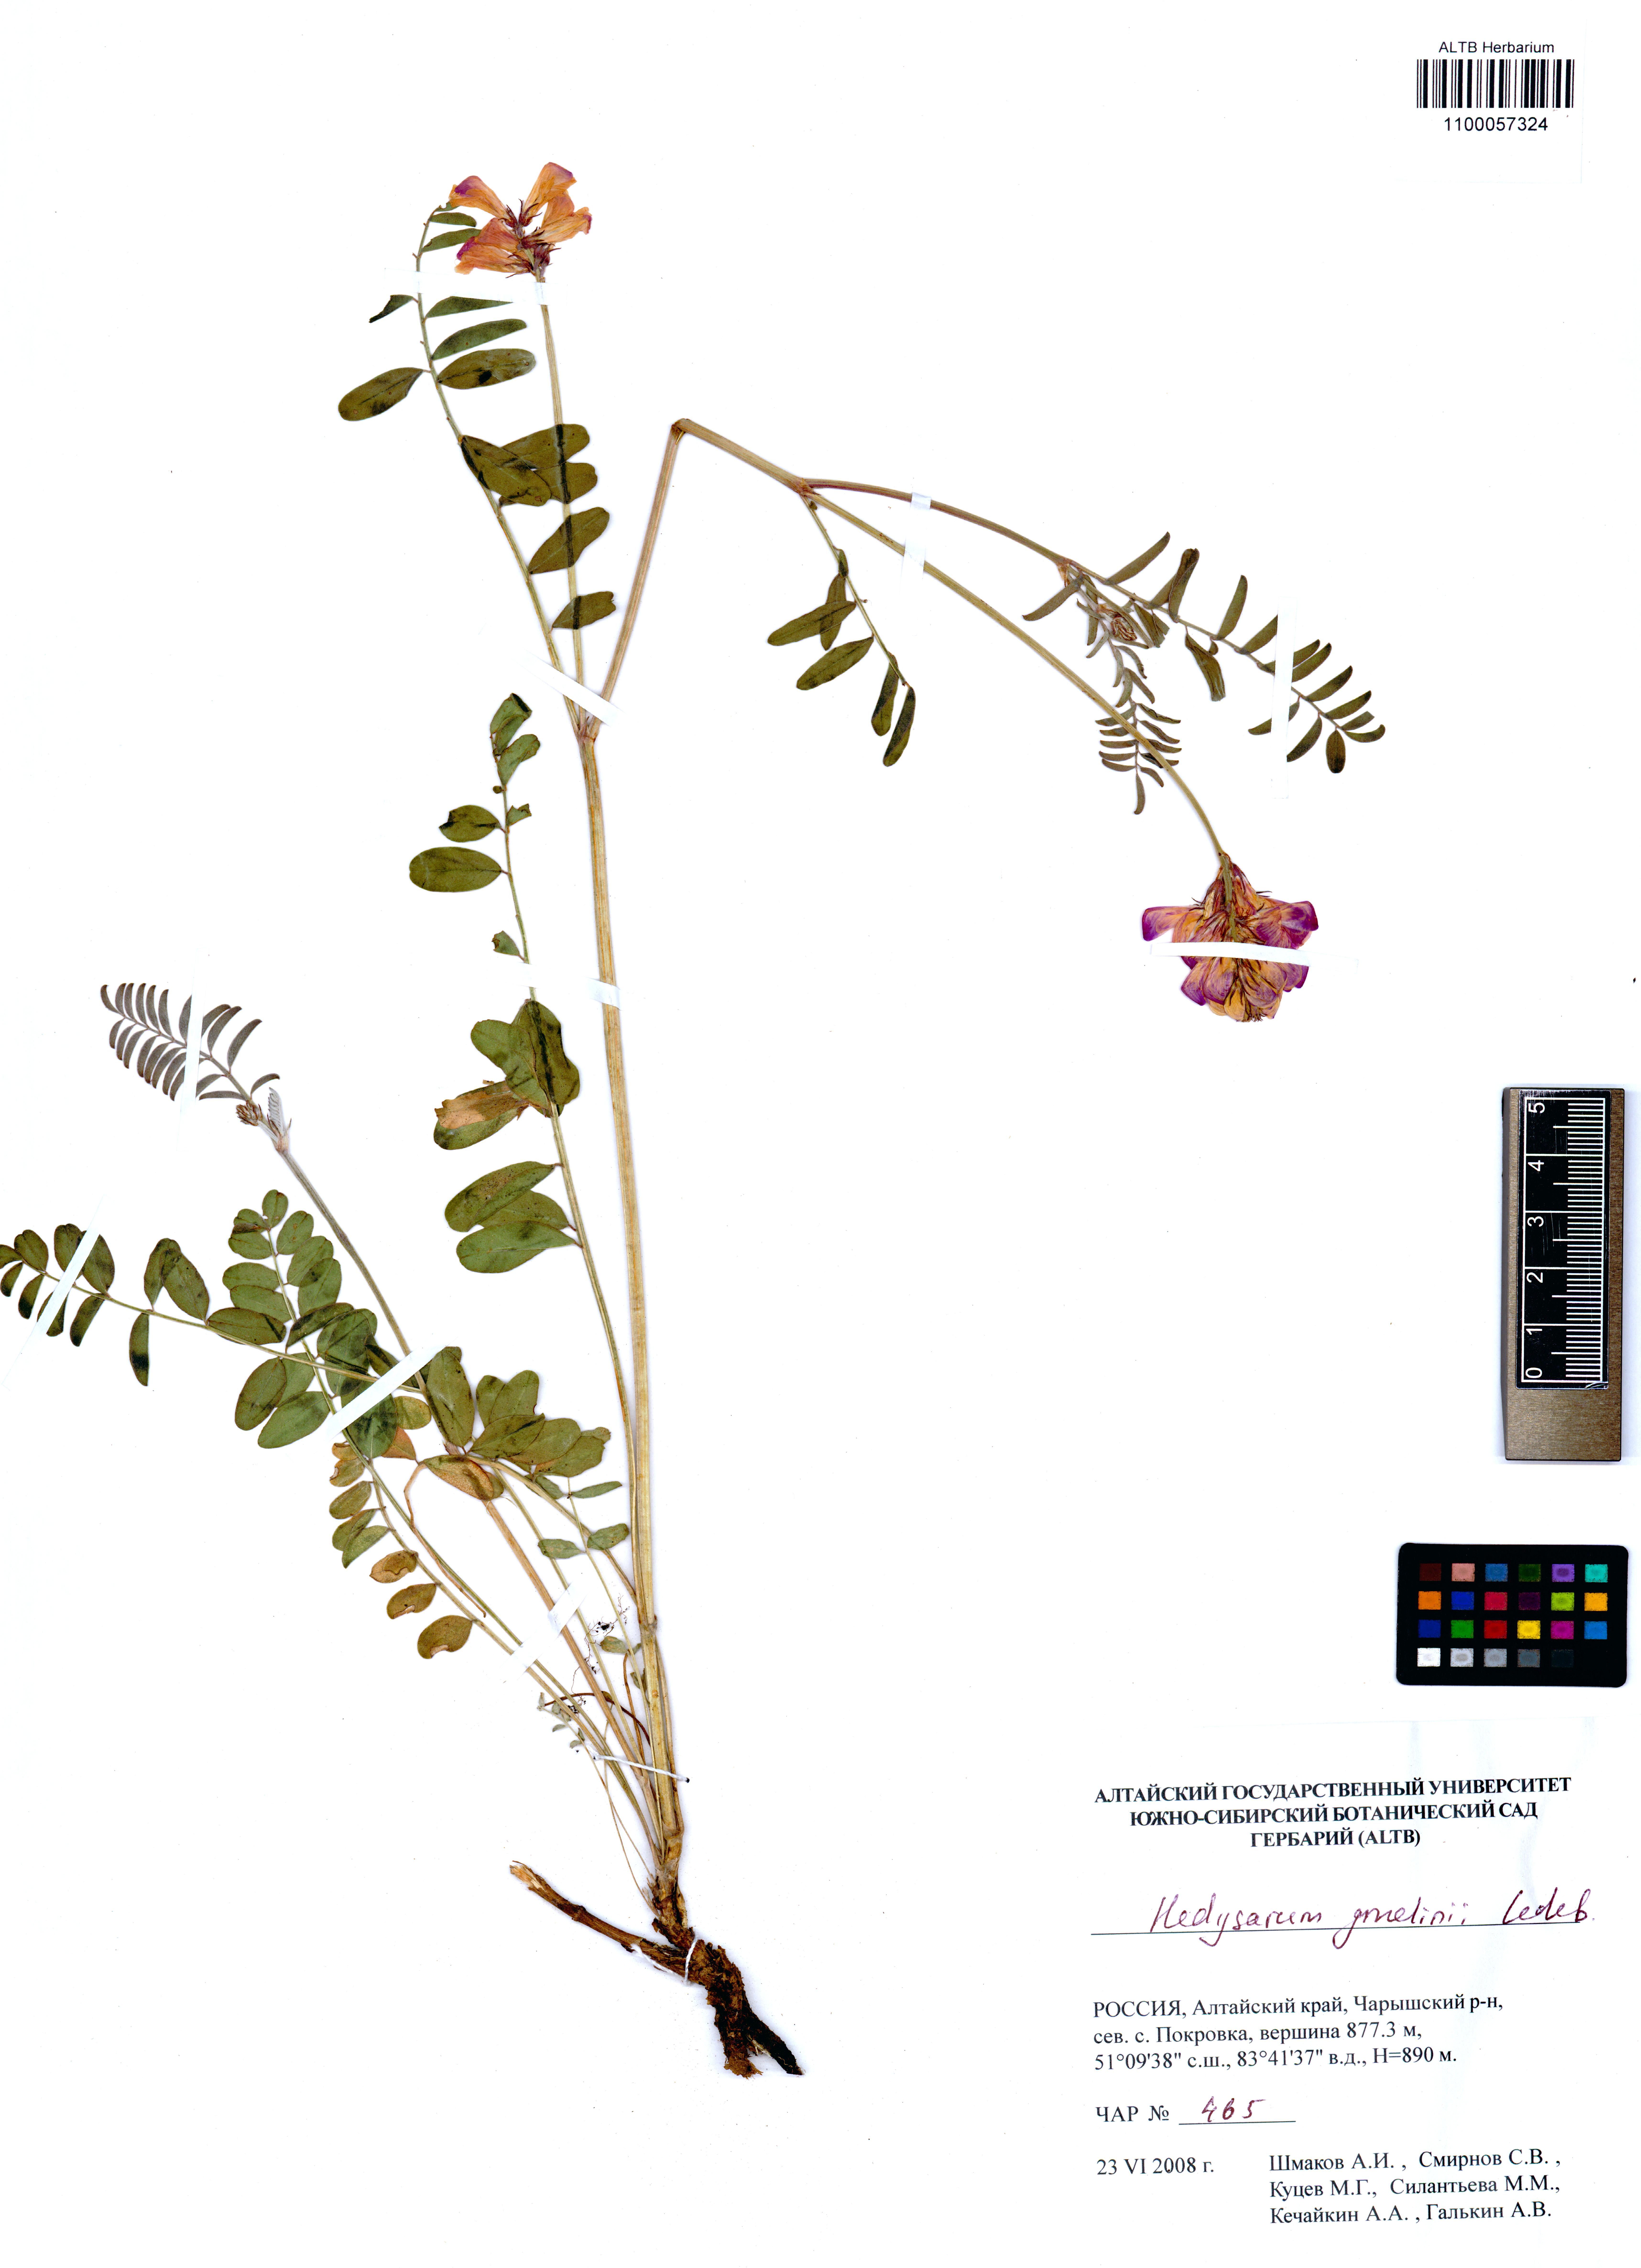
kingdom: Plantae
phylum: Tracheophyta
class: Magnoliopsida
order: Fabales
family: Fabaceae
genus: Hedysarum
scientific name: Hedysarum gmelinii
